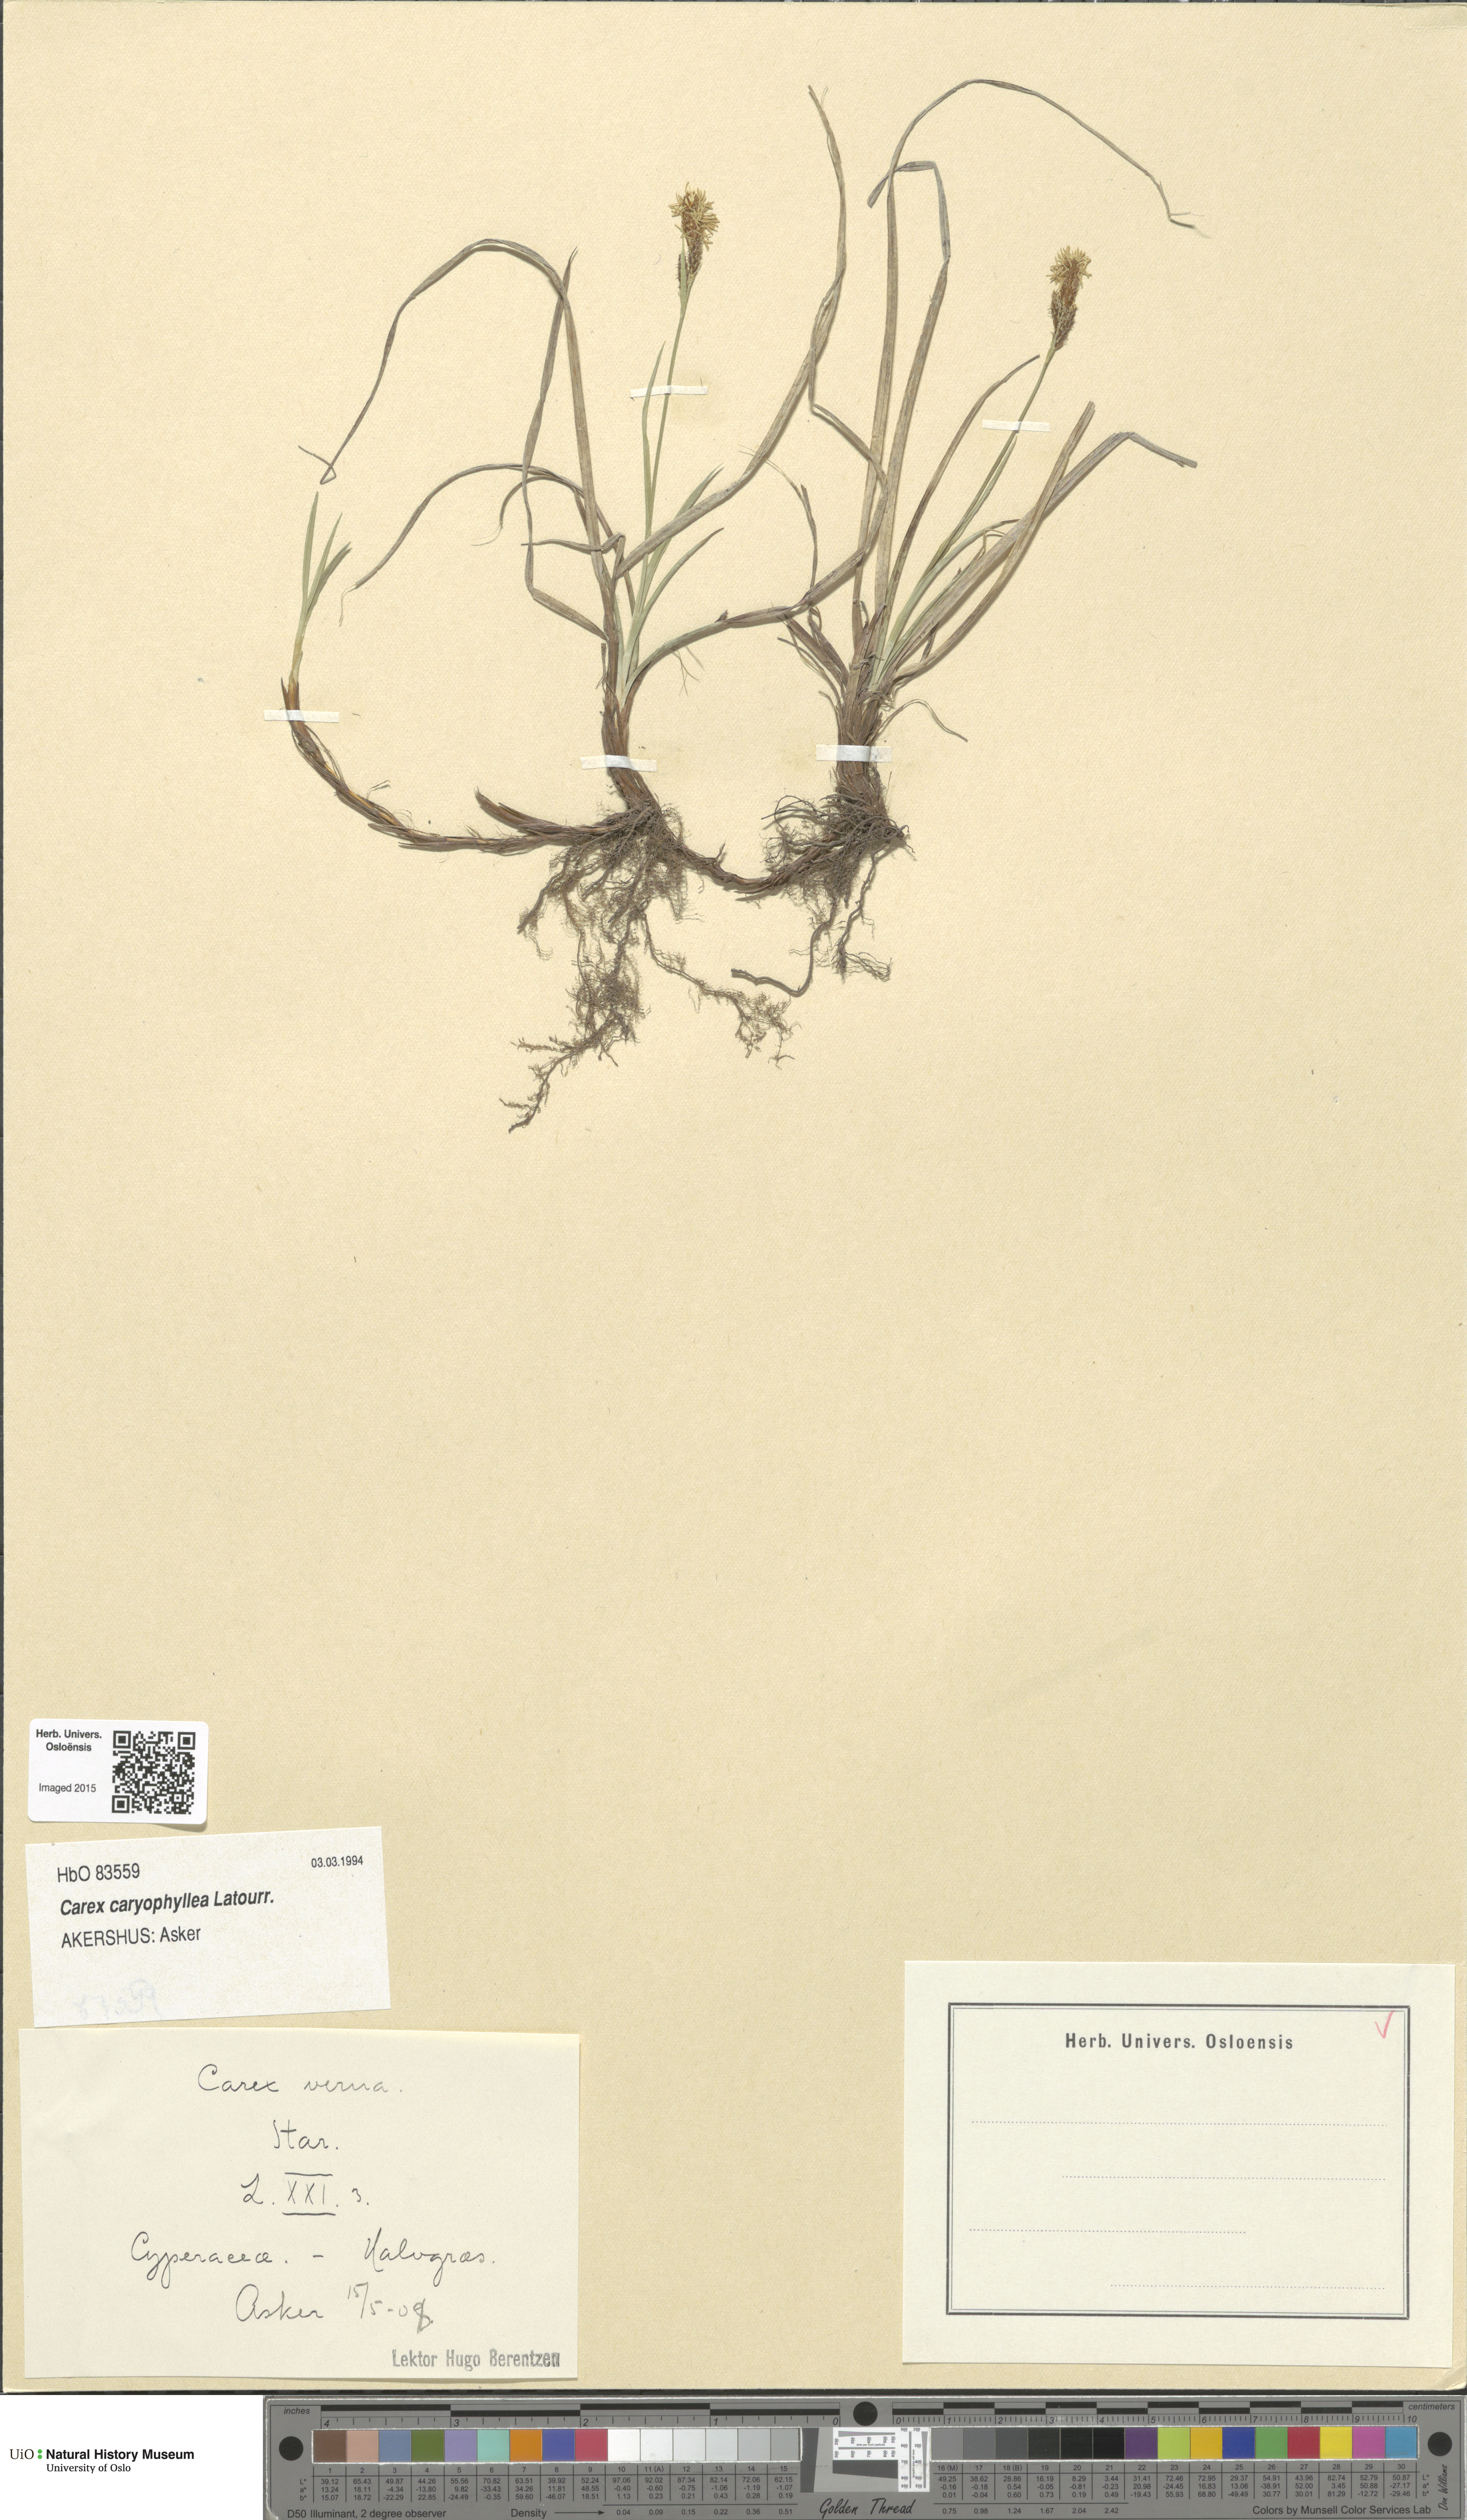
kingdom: Plantae
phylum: Tracheophyta
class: Liliopsida
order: Poales
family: Cyperaceae
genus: Carex
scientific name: Carex caryophyllea
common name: Spring sedge
